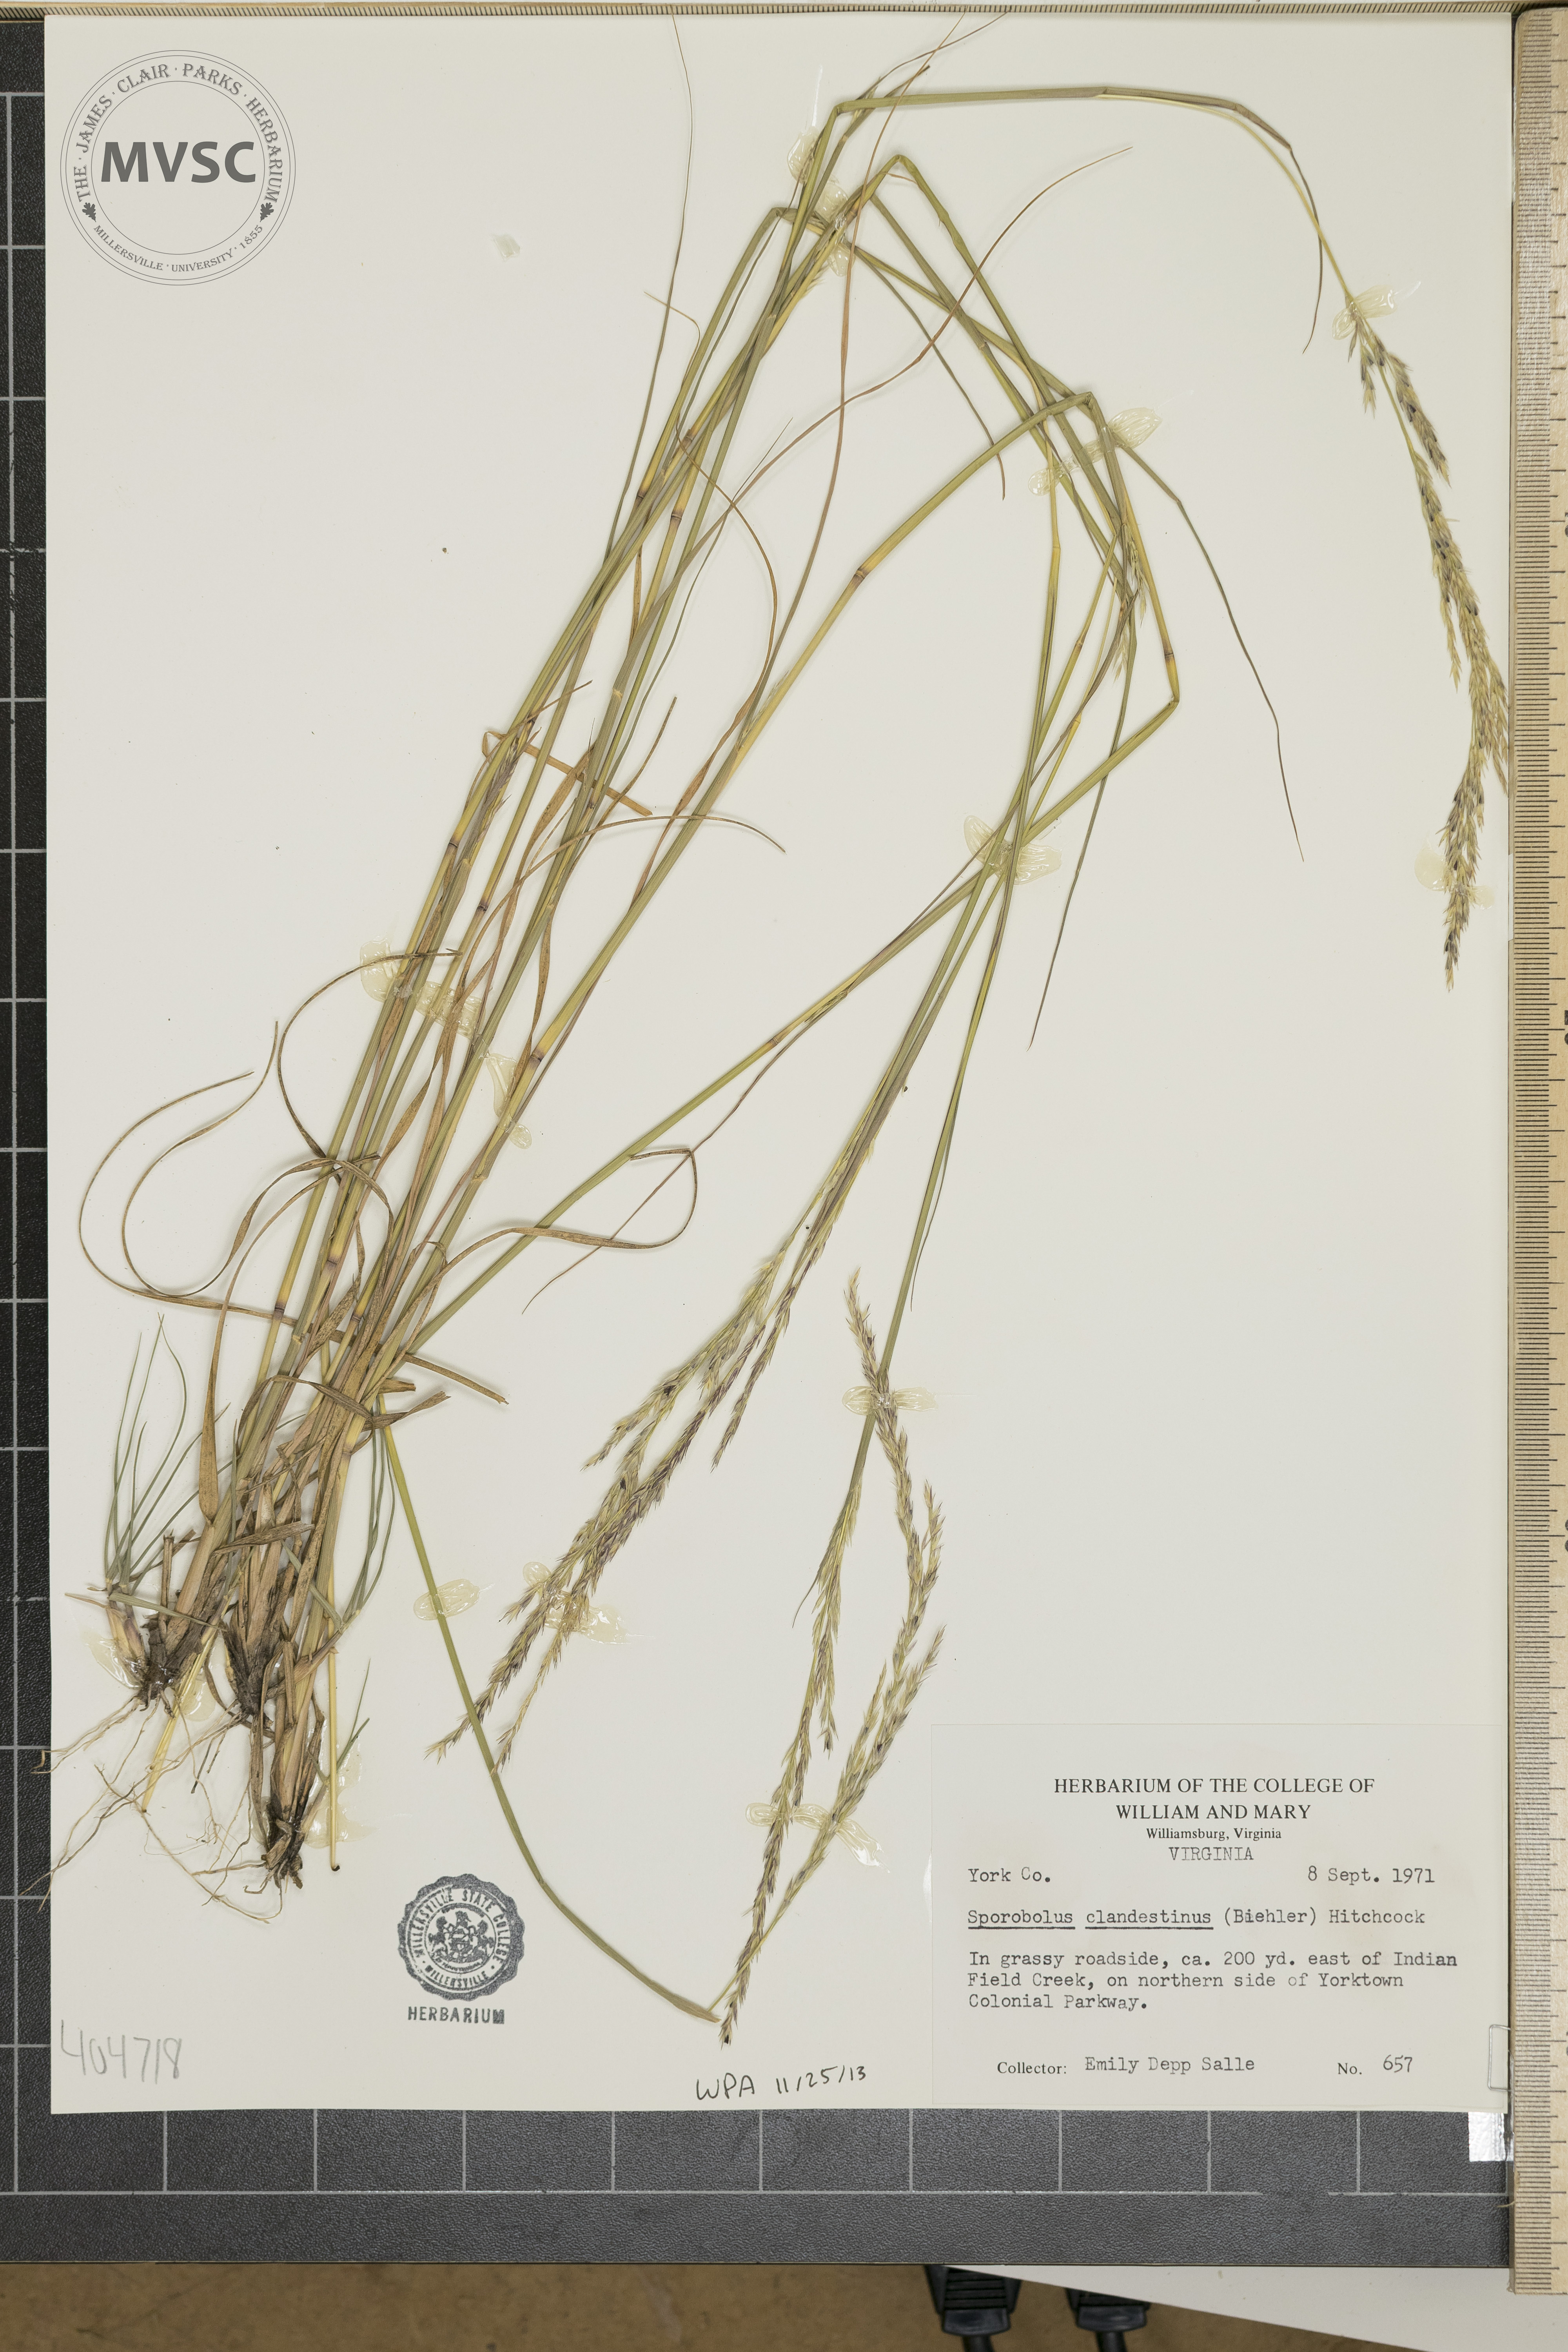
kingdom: Plantae
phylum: Tracheophyta
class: Liliopsida
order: Poales
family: Poaceae
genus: Sporobolus
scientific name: Sporobolus clandestinus
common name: Hidden dropseed
